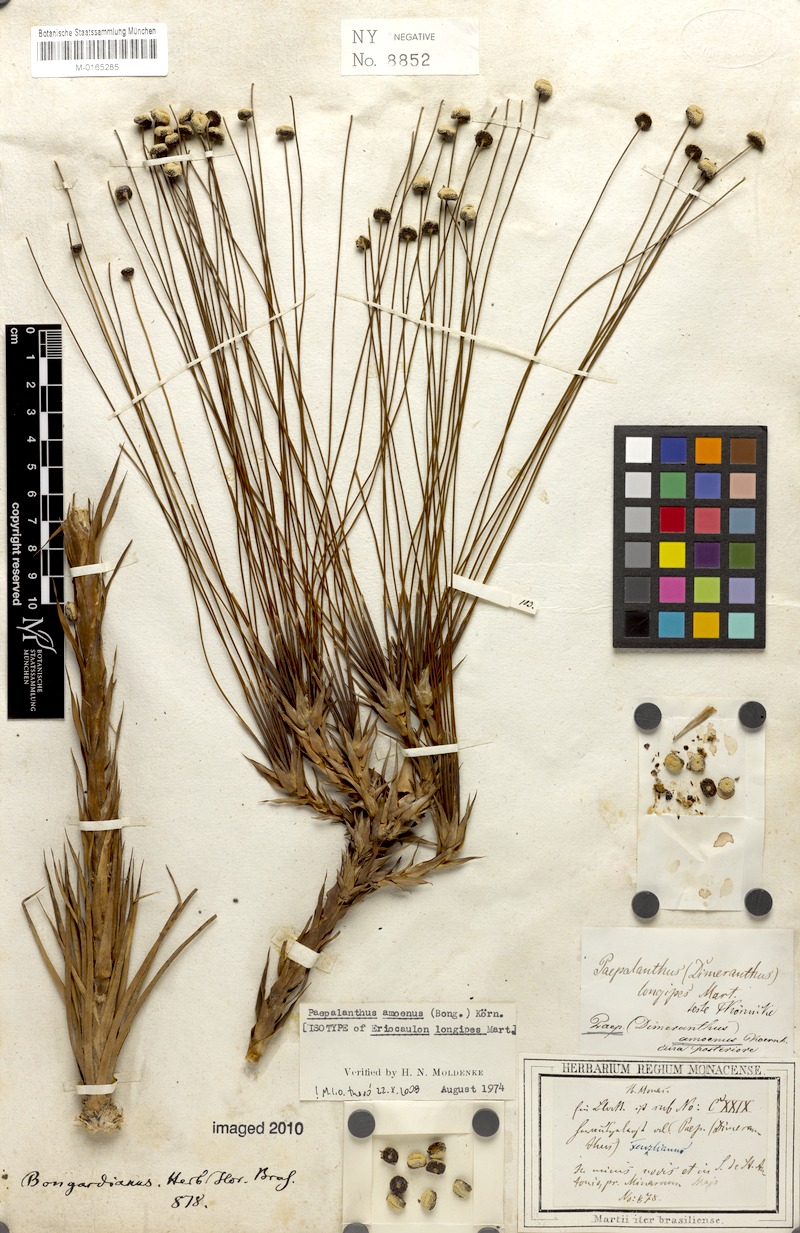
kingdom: Plantae
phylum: Tracheophyta
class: Liliopsida
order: Poales
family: Eriocaulaceae
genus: Paepalanthus
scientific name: Paepalanthus amoenus
